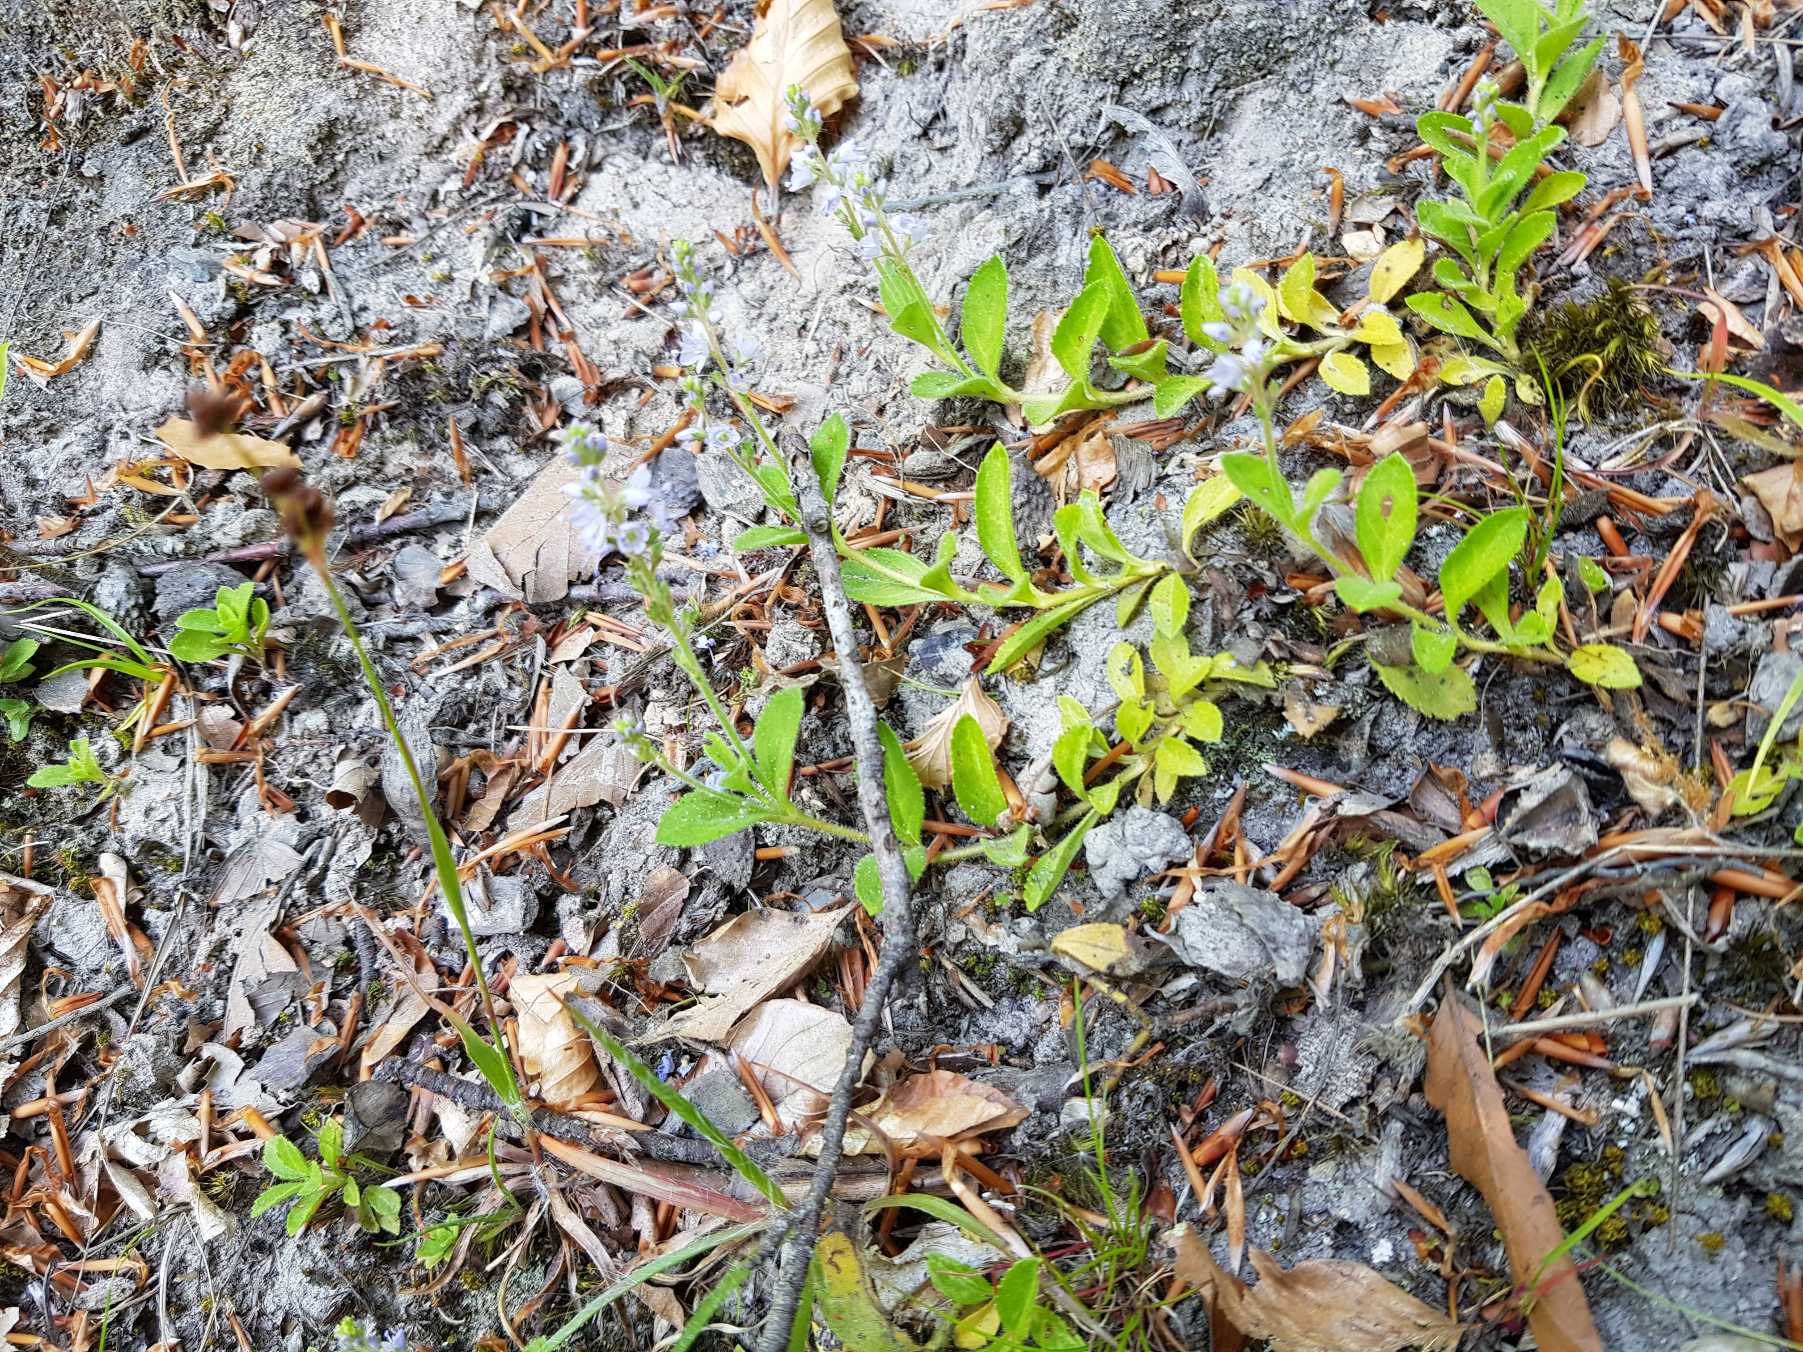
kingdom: Plantae
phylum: Tracheophyta
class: Magnoliopsida
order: Lamiales
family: Plantaginaceae
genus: Veronica
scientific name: Veronica officinalis
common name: Læge-ærenpris
